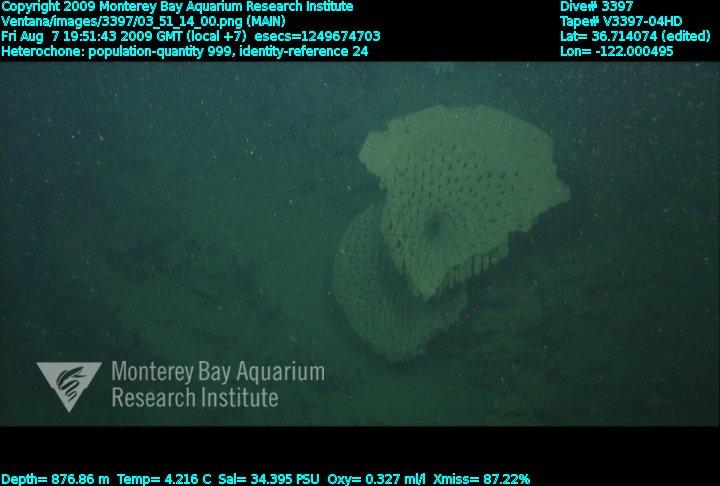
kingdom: Animalia
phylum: Porifera
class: Hexactinellida
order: Sceptrulophora
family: Aphrocallistidae
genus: Heterochone
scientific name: Heterochone
